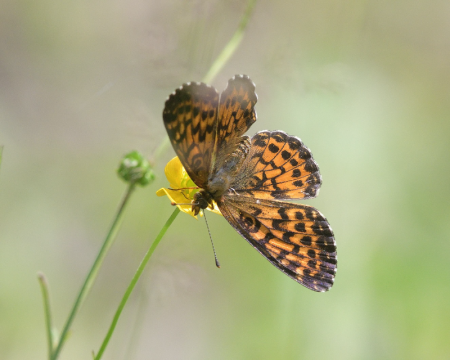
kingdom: Animalia
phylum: Arthropoda
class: Insecta
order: Lepidoptera
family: Nymphalidae
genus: Boloria
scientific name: Boloria chariclea
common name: Arctic Fritillary
